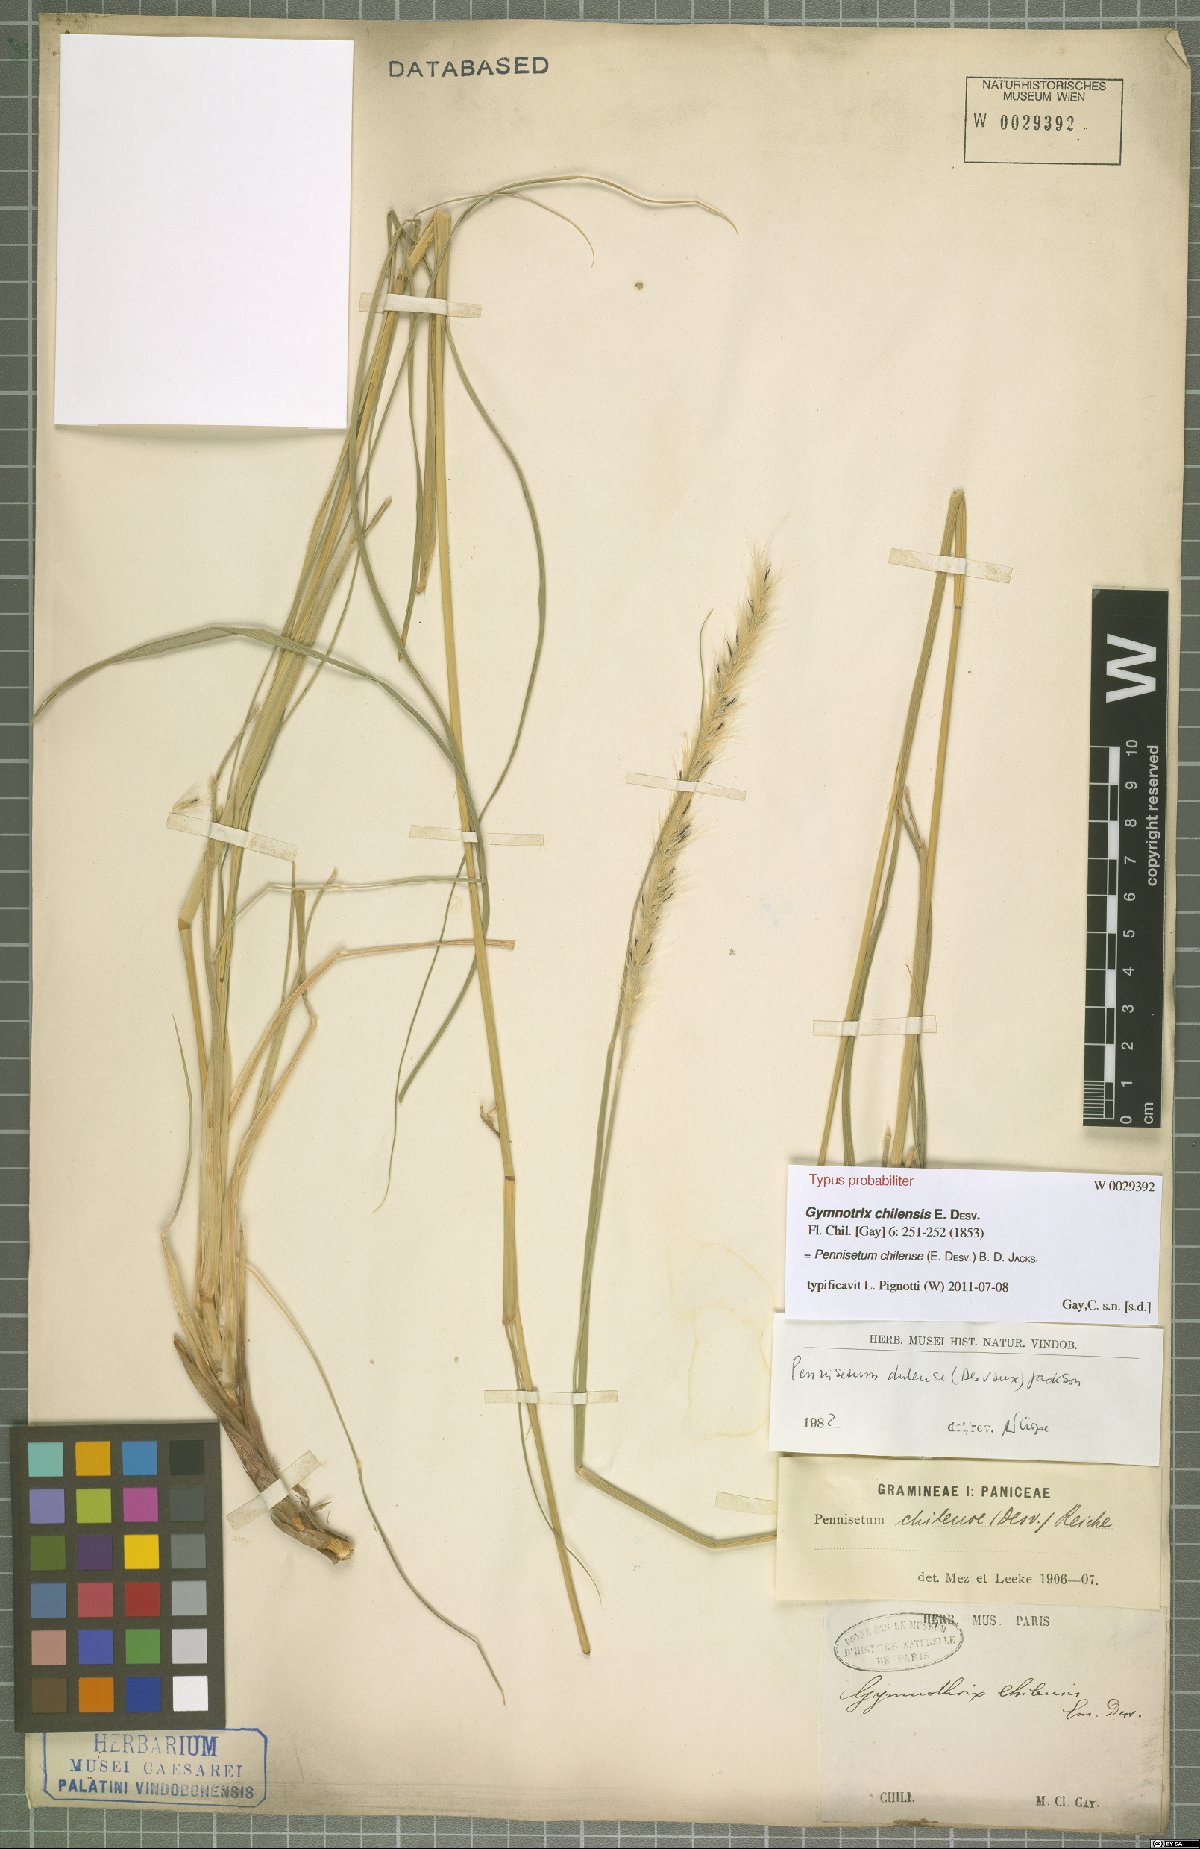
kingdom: Plantae
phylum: Tracheophyta
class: Liliopsida
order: Poales
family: Poaceae
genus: Cenchrus
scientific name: Cenchrus chilensis
